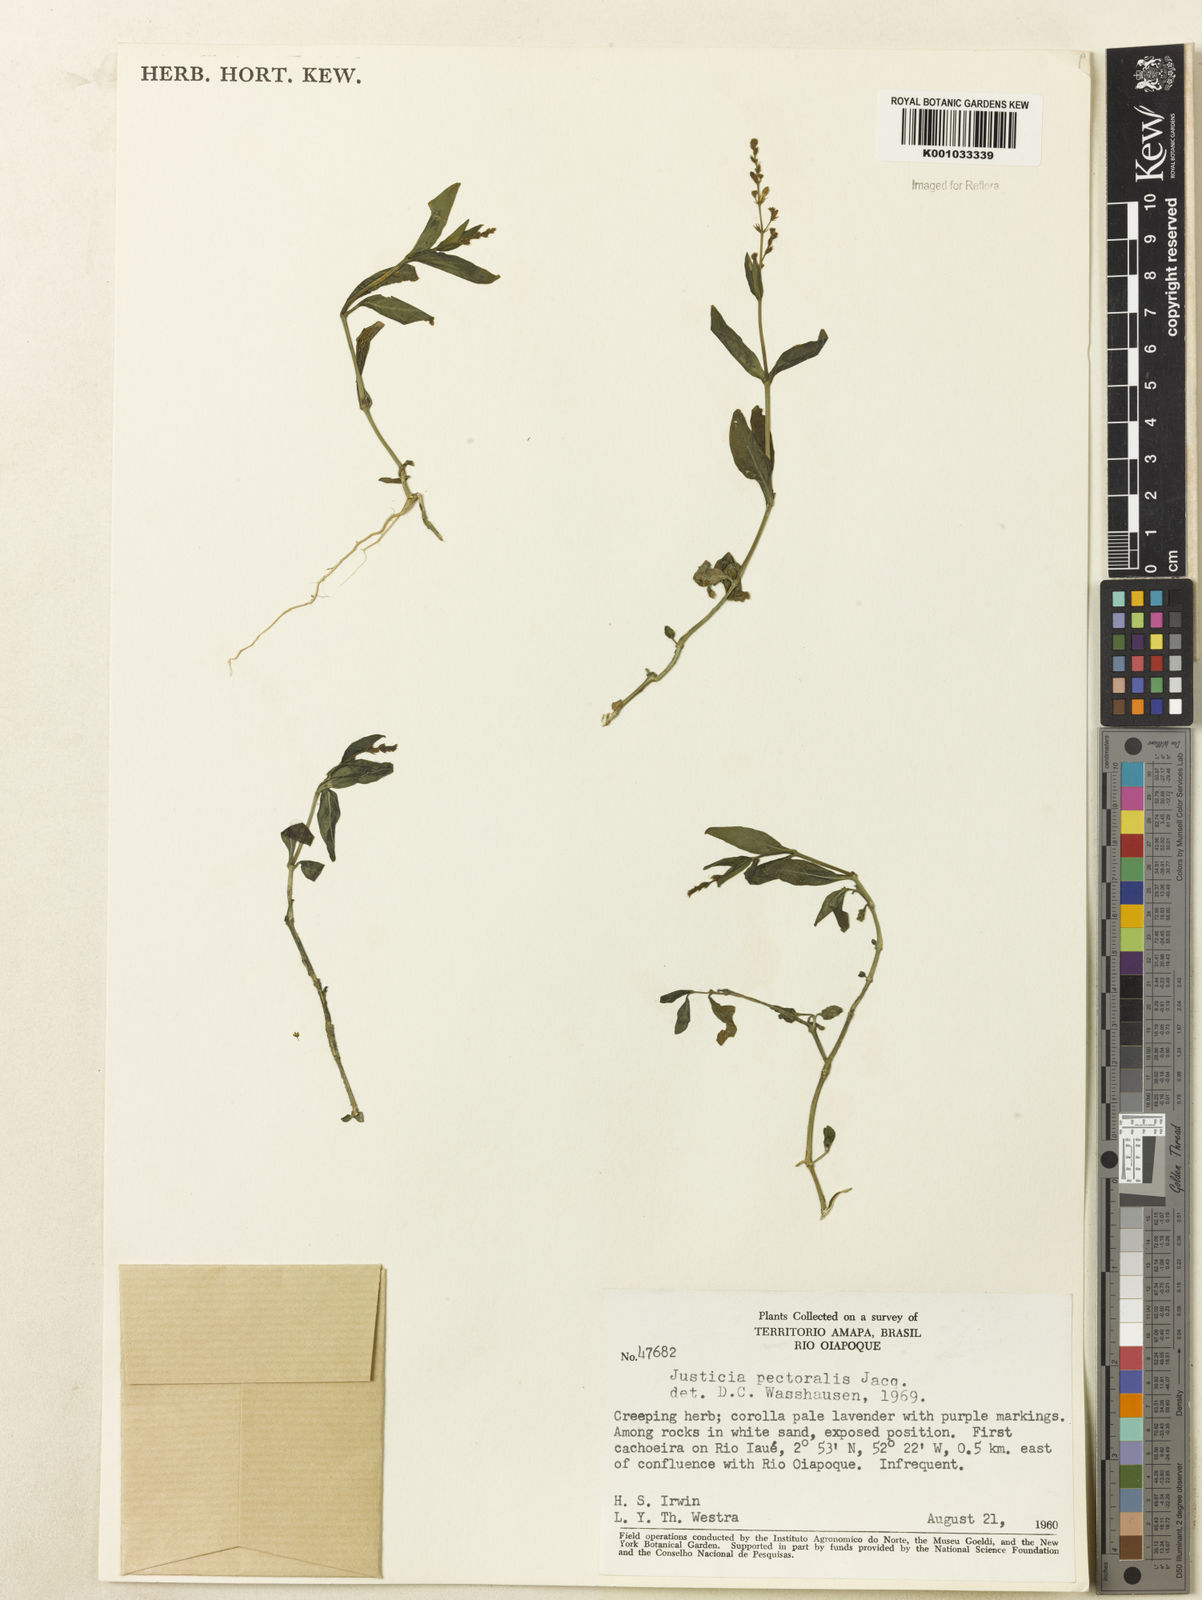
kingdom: Plantae
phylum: Tracheophyta
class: Magnoliopsida
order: Lamiales
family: Acanthaceae
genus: Dianthera
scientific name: Dianthera pectoralis
